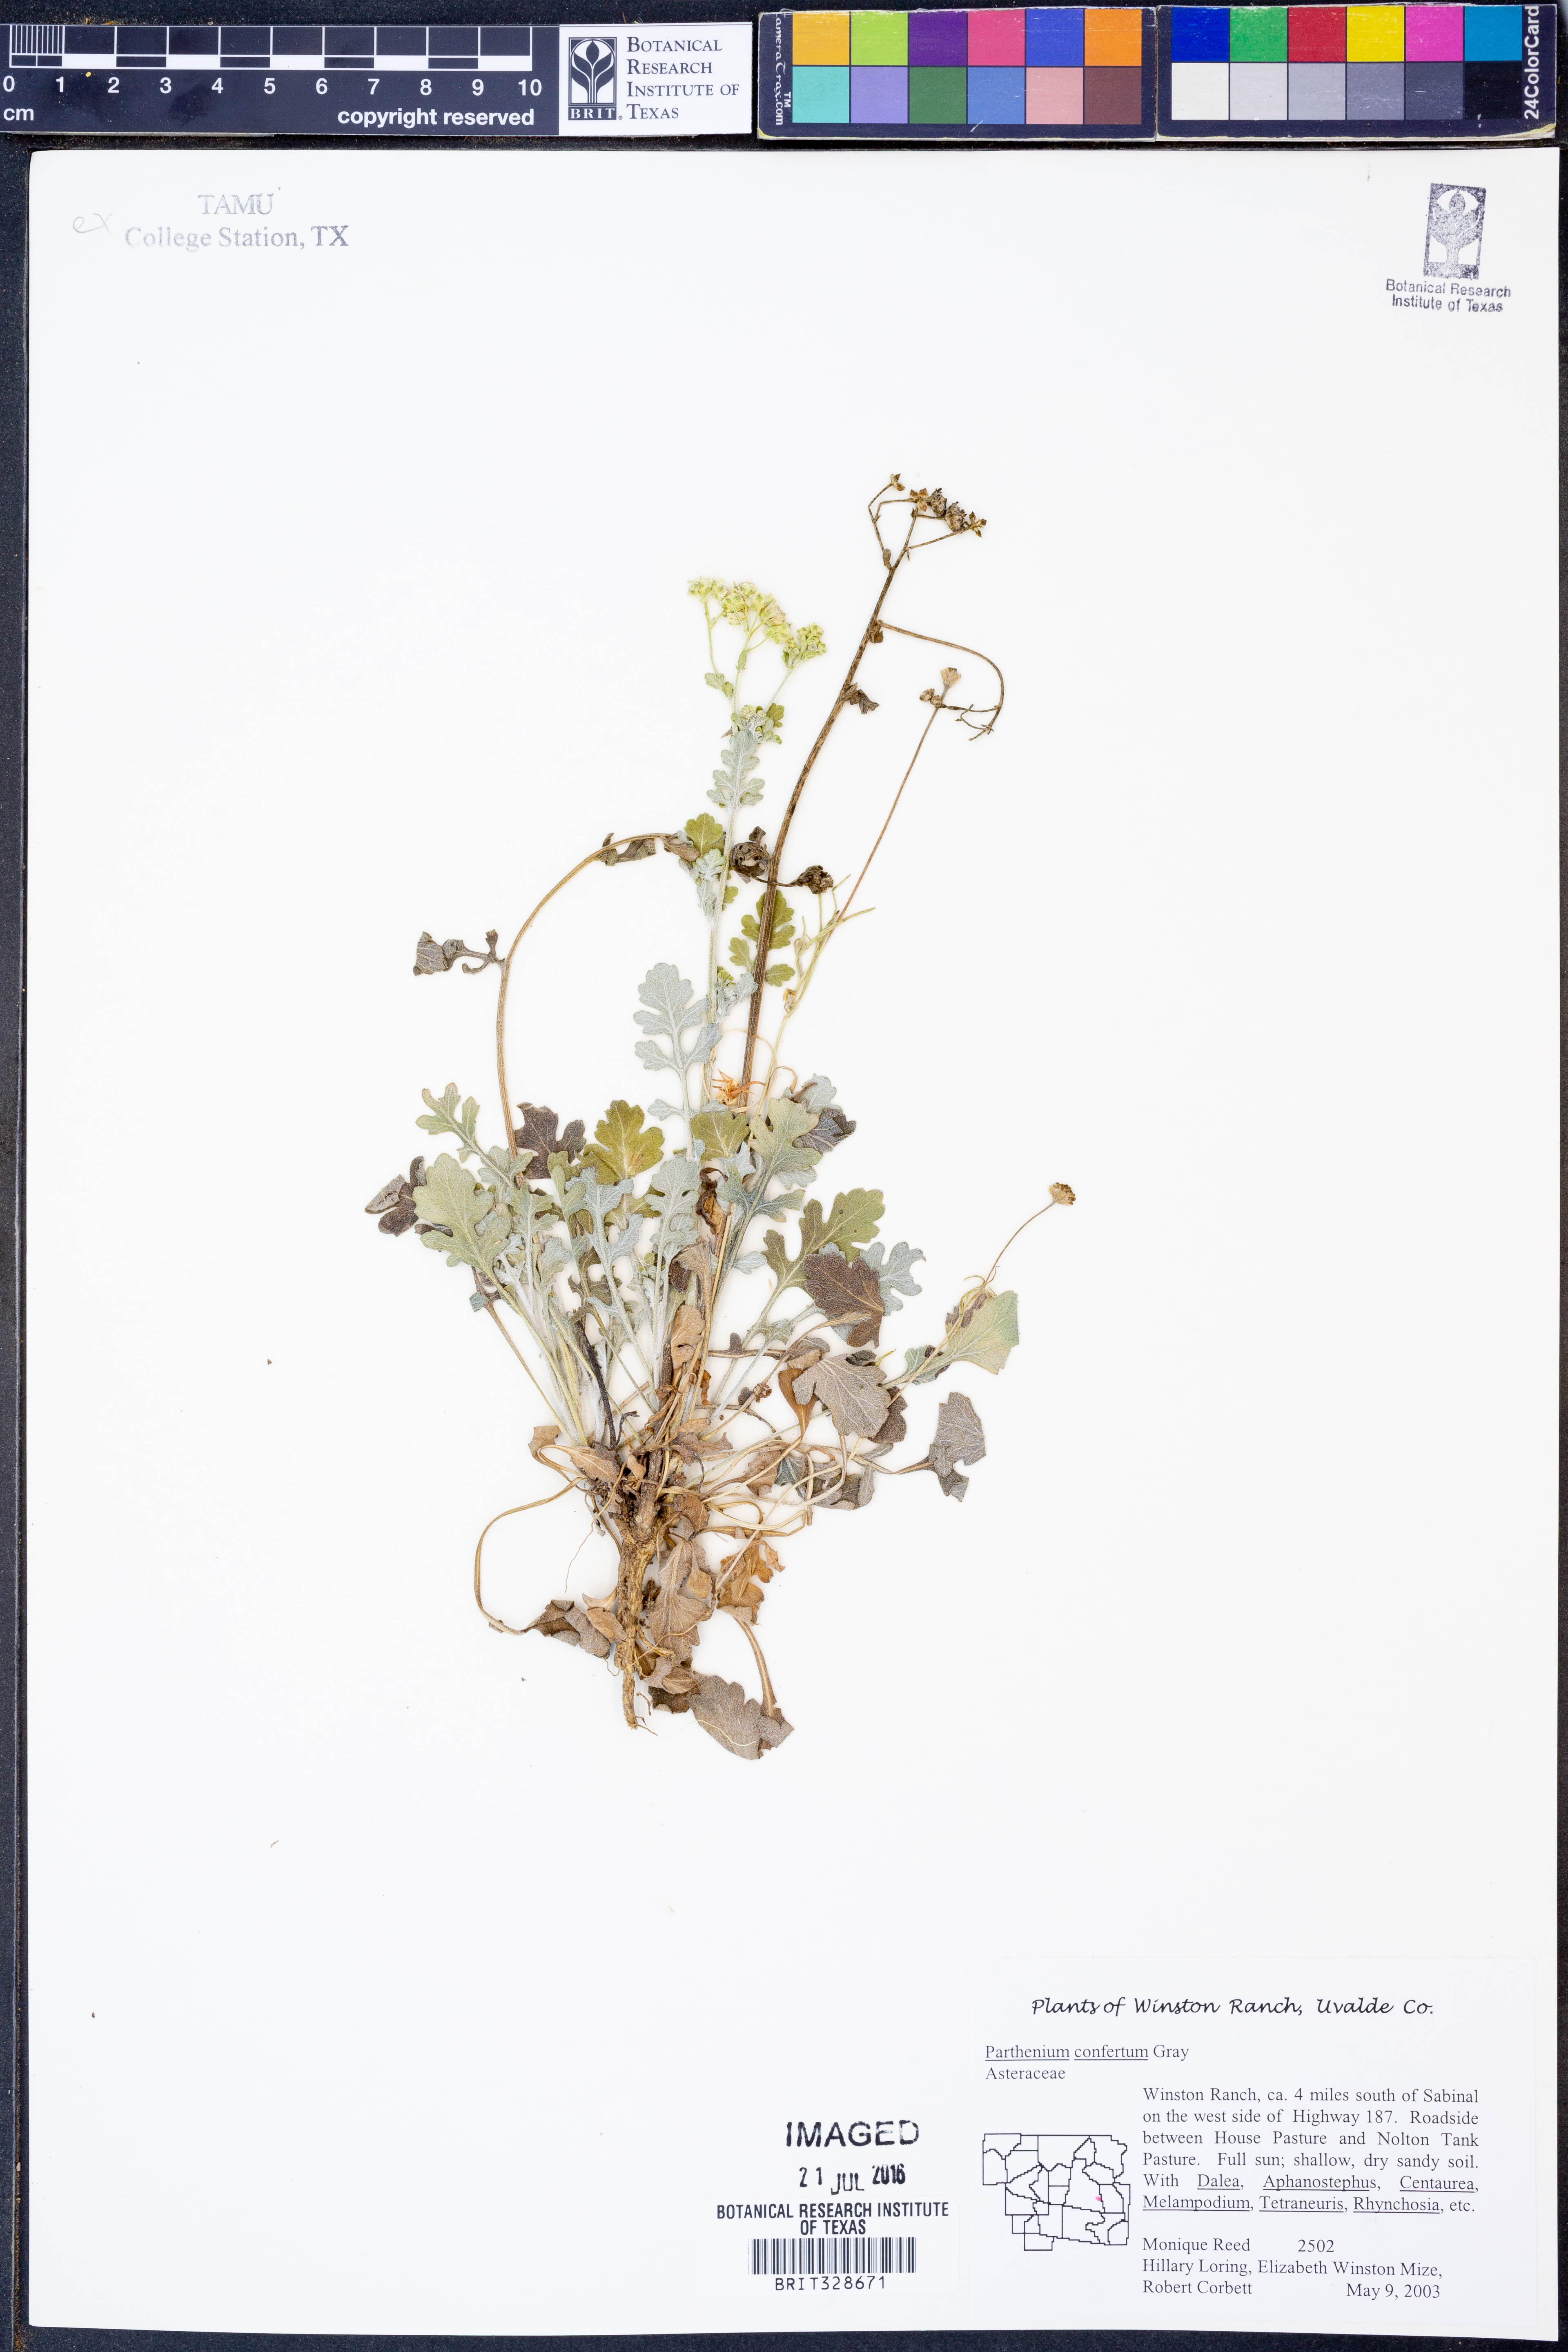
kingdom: Plantae
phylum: Tracheophyta
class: Magnoliopsida
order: Asterales
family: Asteraceae
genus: Parthenium
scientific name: Parthenium confertum
